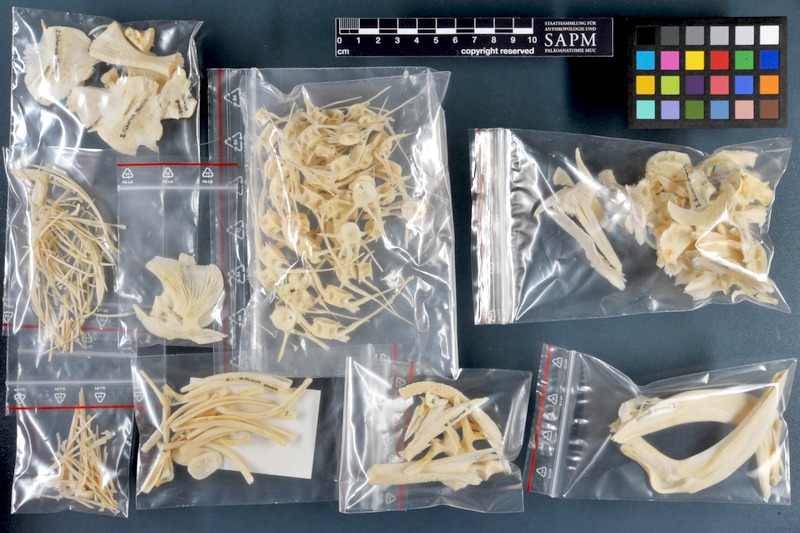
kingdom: Animalia
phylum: Chordata
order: Siluriformes
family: Siluridae
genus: Silurus
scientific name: Silurus glanis
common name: Wels
